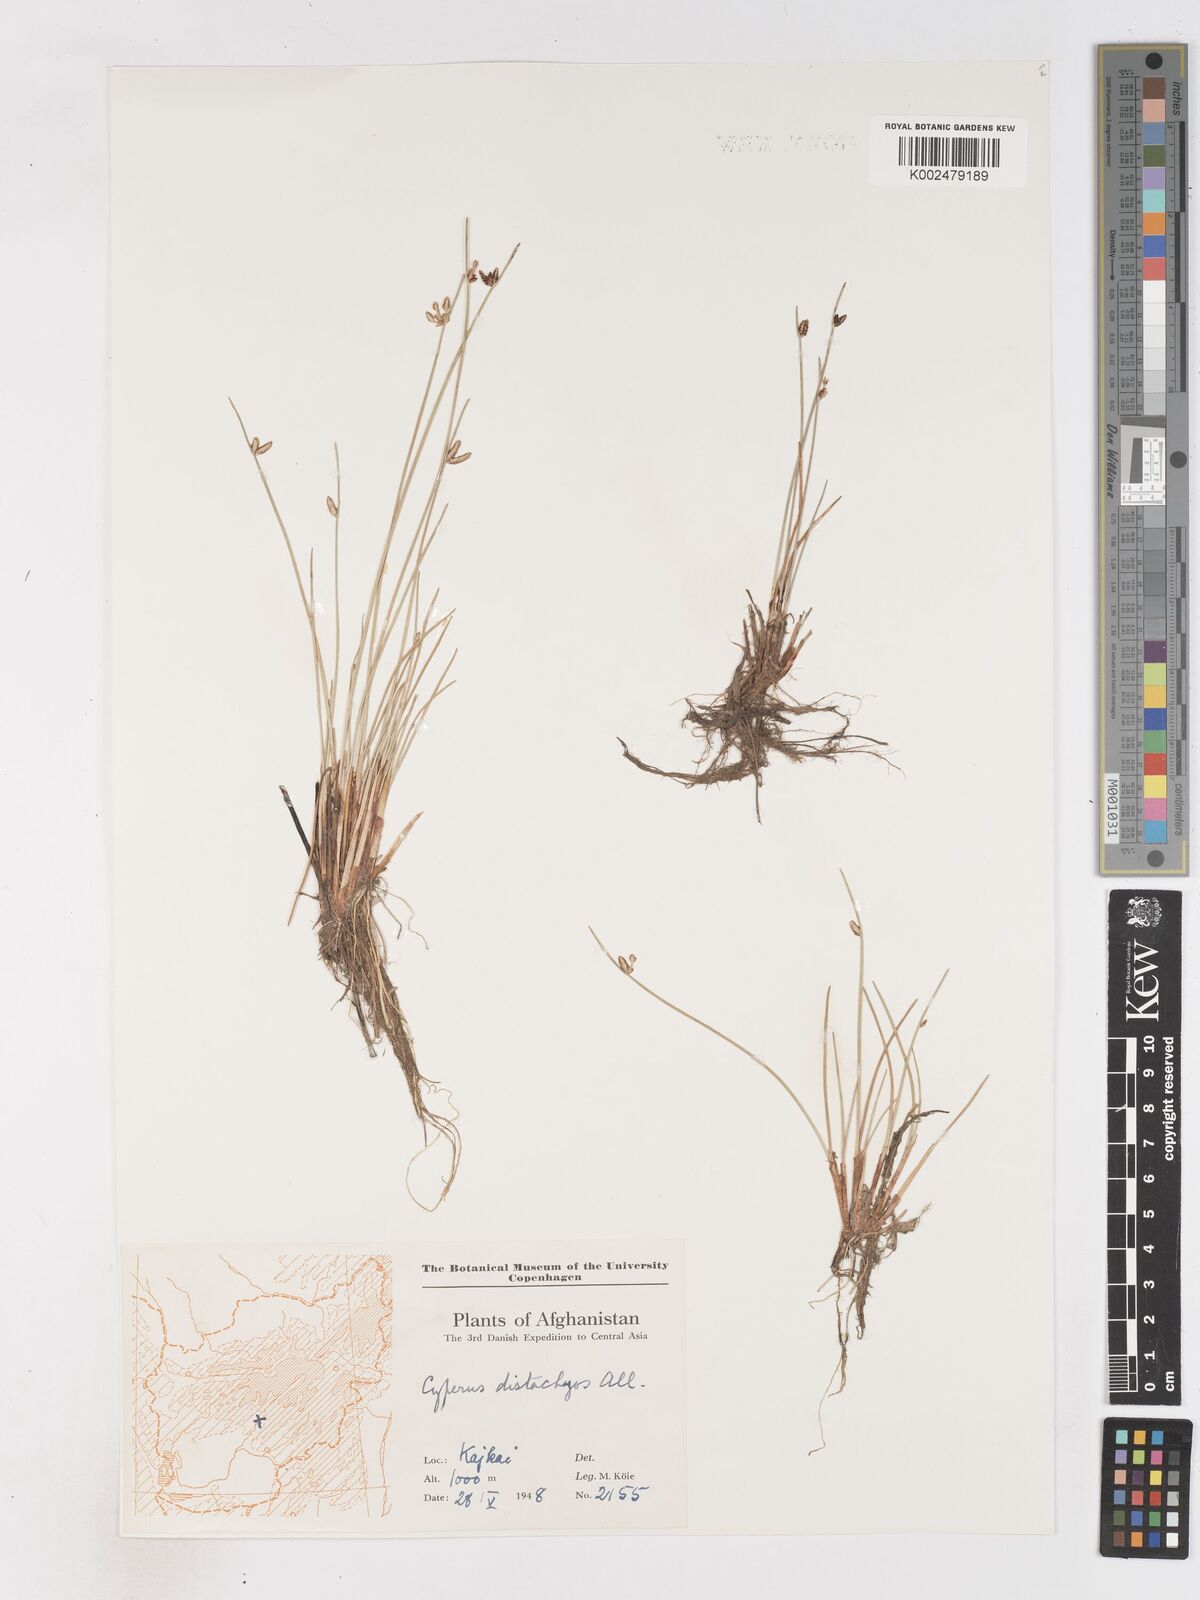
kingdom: Plantae
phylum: Tracheophyta
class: Liliopsida
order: Poales
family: Cyperaceae
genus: Cyperus
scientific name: Cyperus laevigatus
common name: Smooth flat sedge
